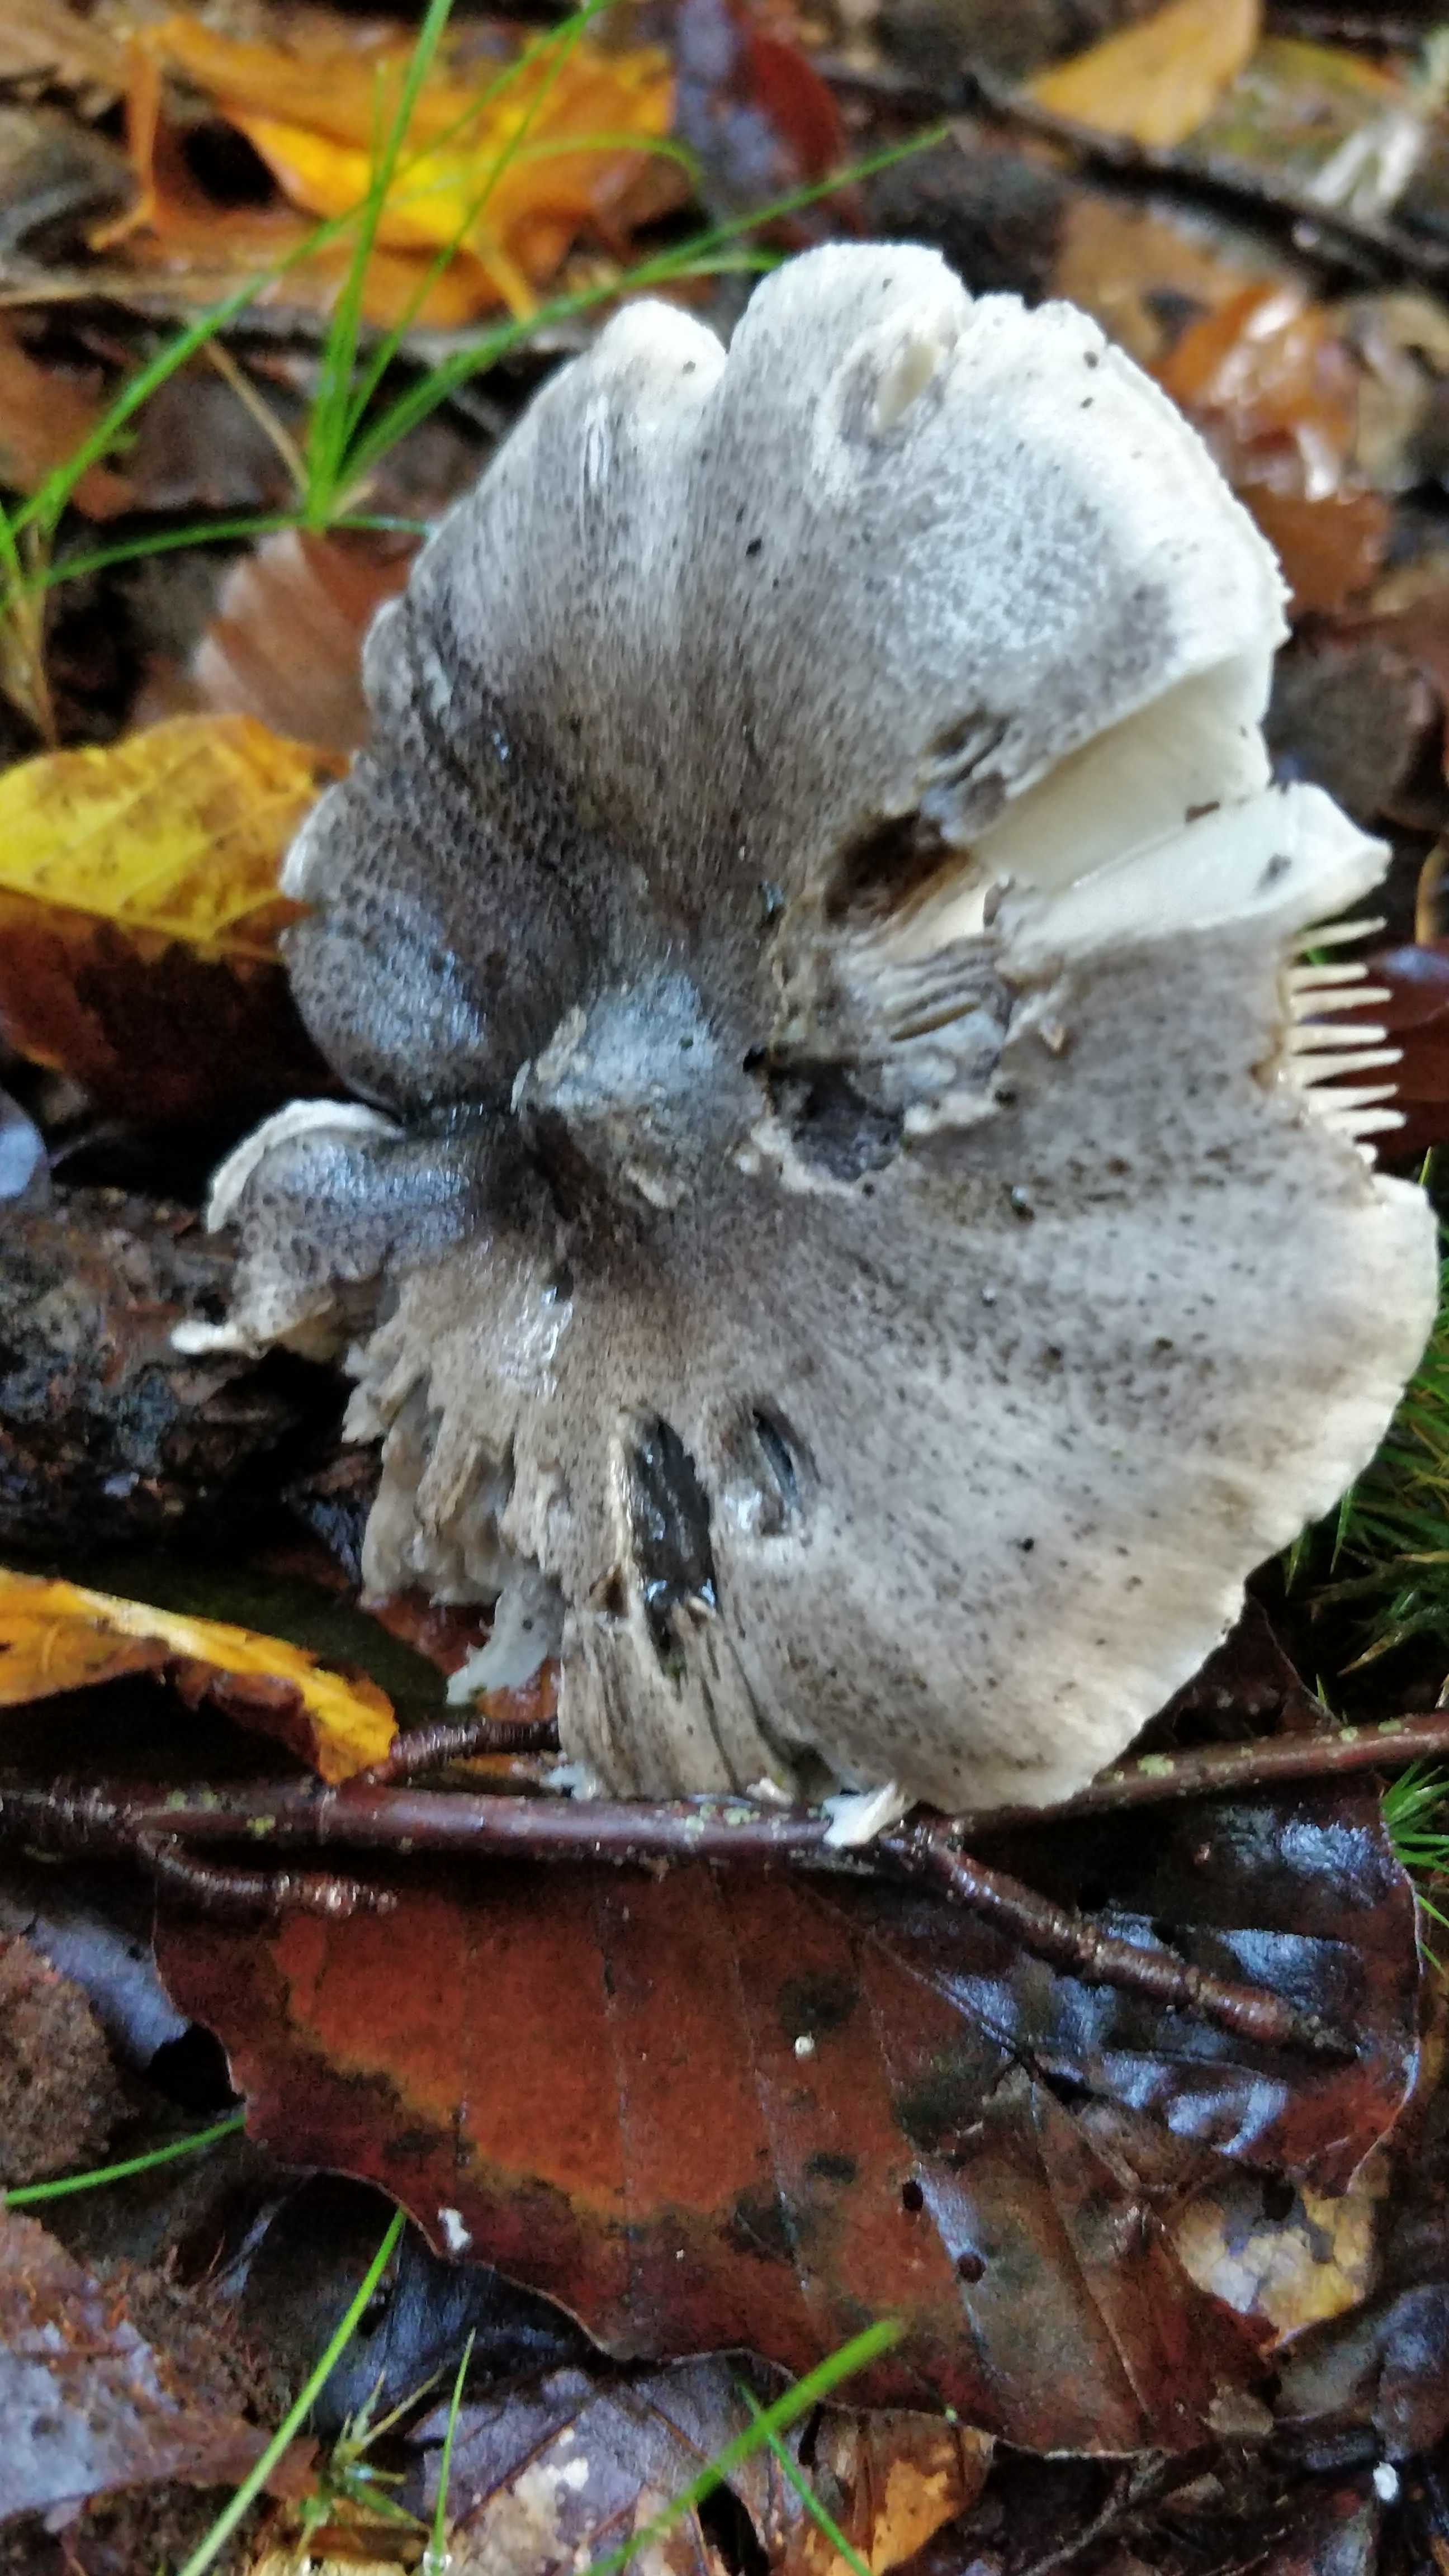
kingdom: Fungi
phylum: Basidiomycota
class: Agaricomycetes
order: Agaricales
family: Tricholomataceae
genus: Tricholoma
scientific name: Tricholoma sciodes
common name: stribet ridderhat
